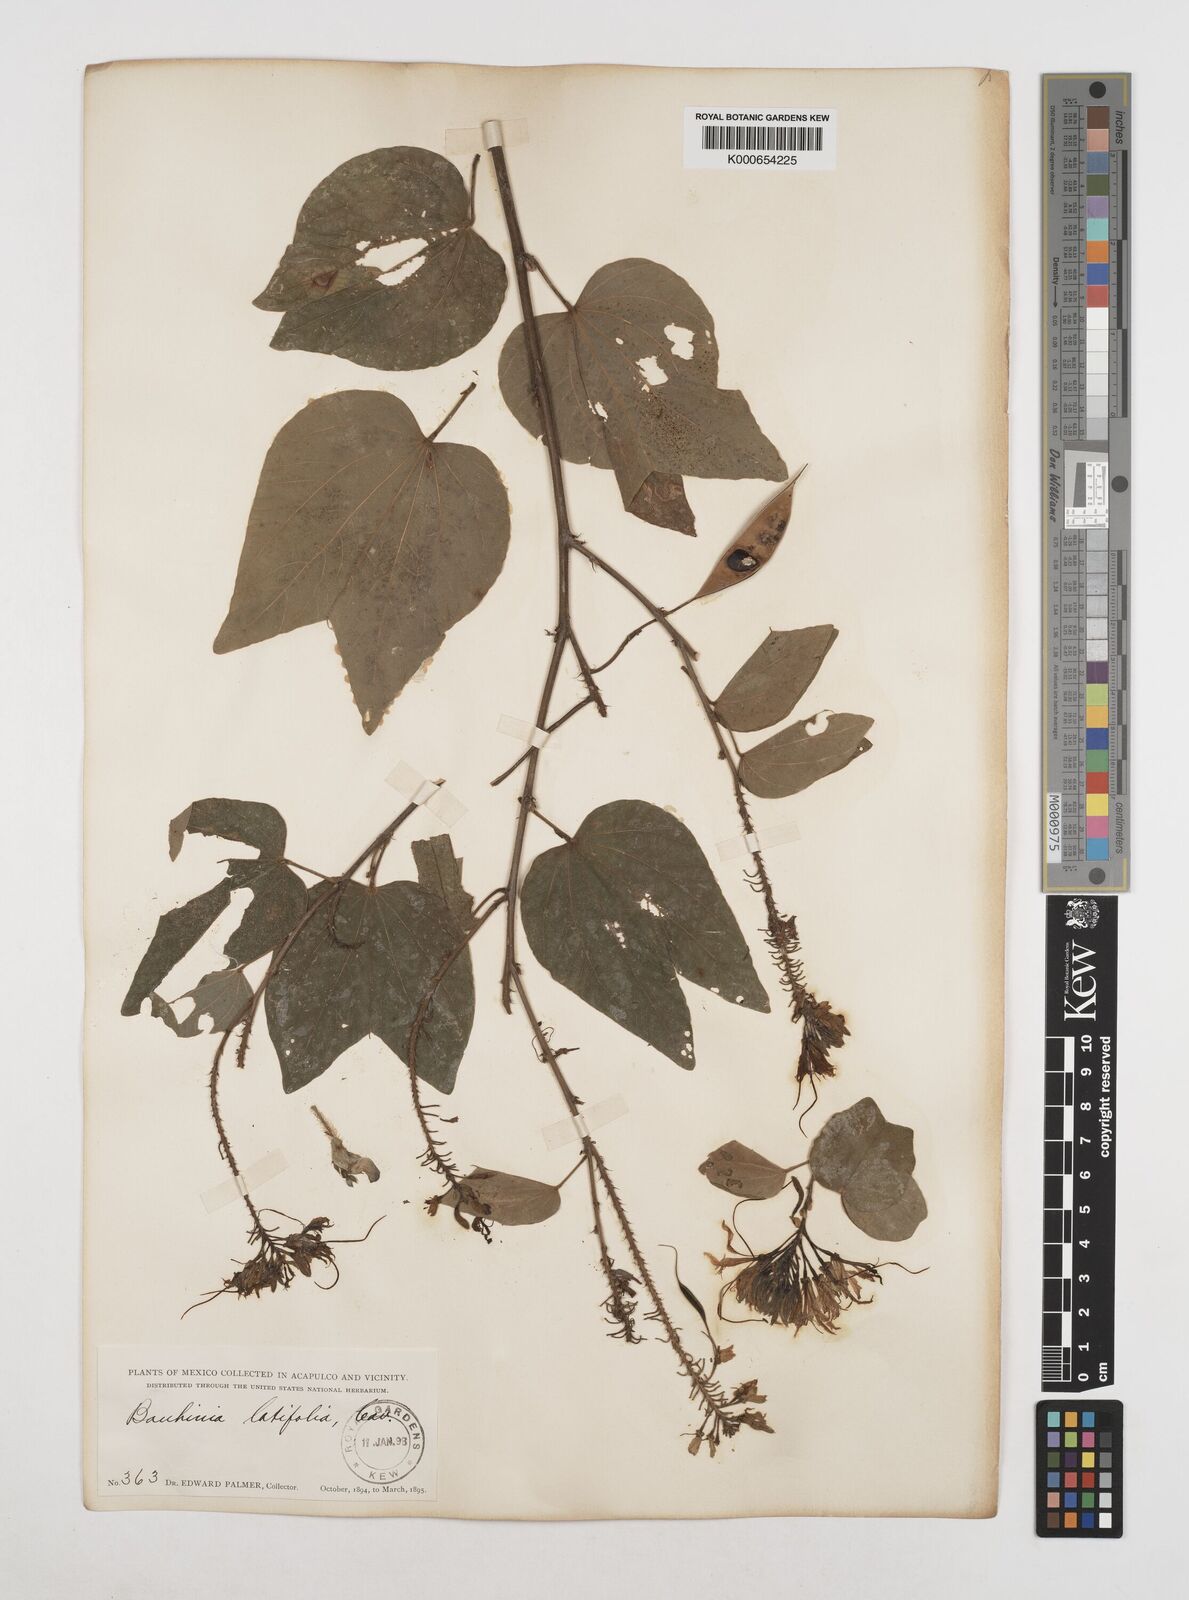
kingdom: Plantae
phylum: Tracheophyta
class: Magnoliopsida
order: Fabales
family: Fabaceae
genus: Bauhinia
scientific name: Bauhinia divaricata
